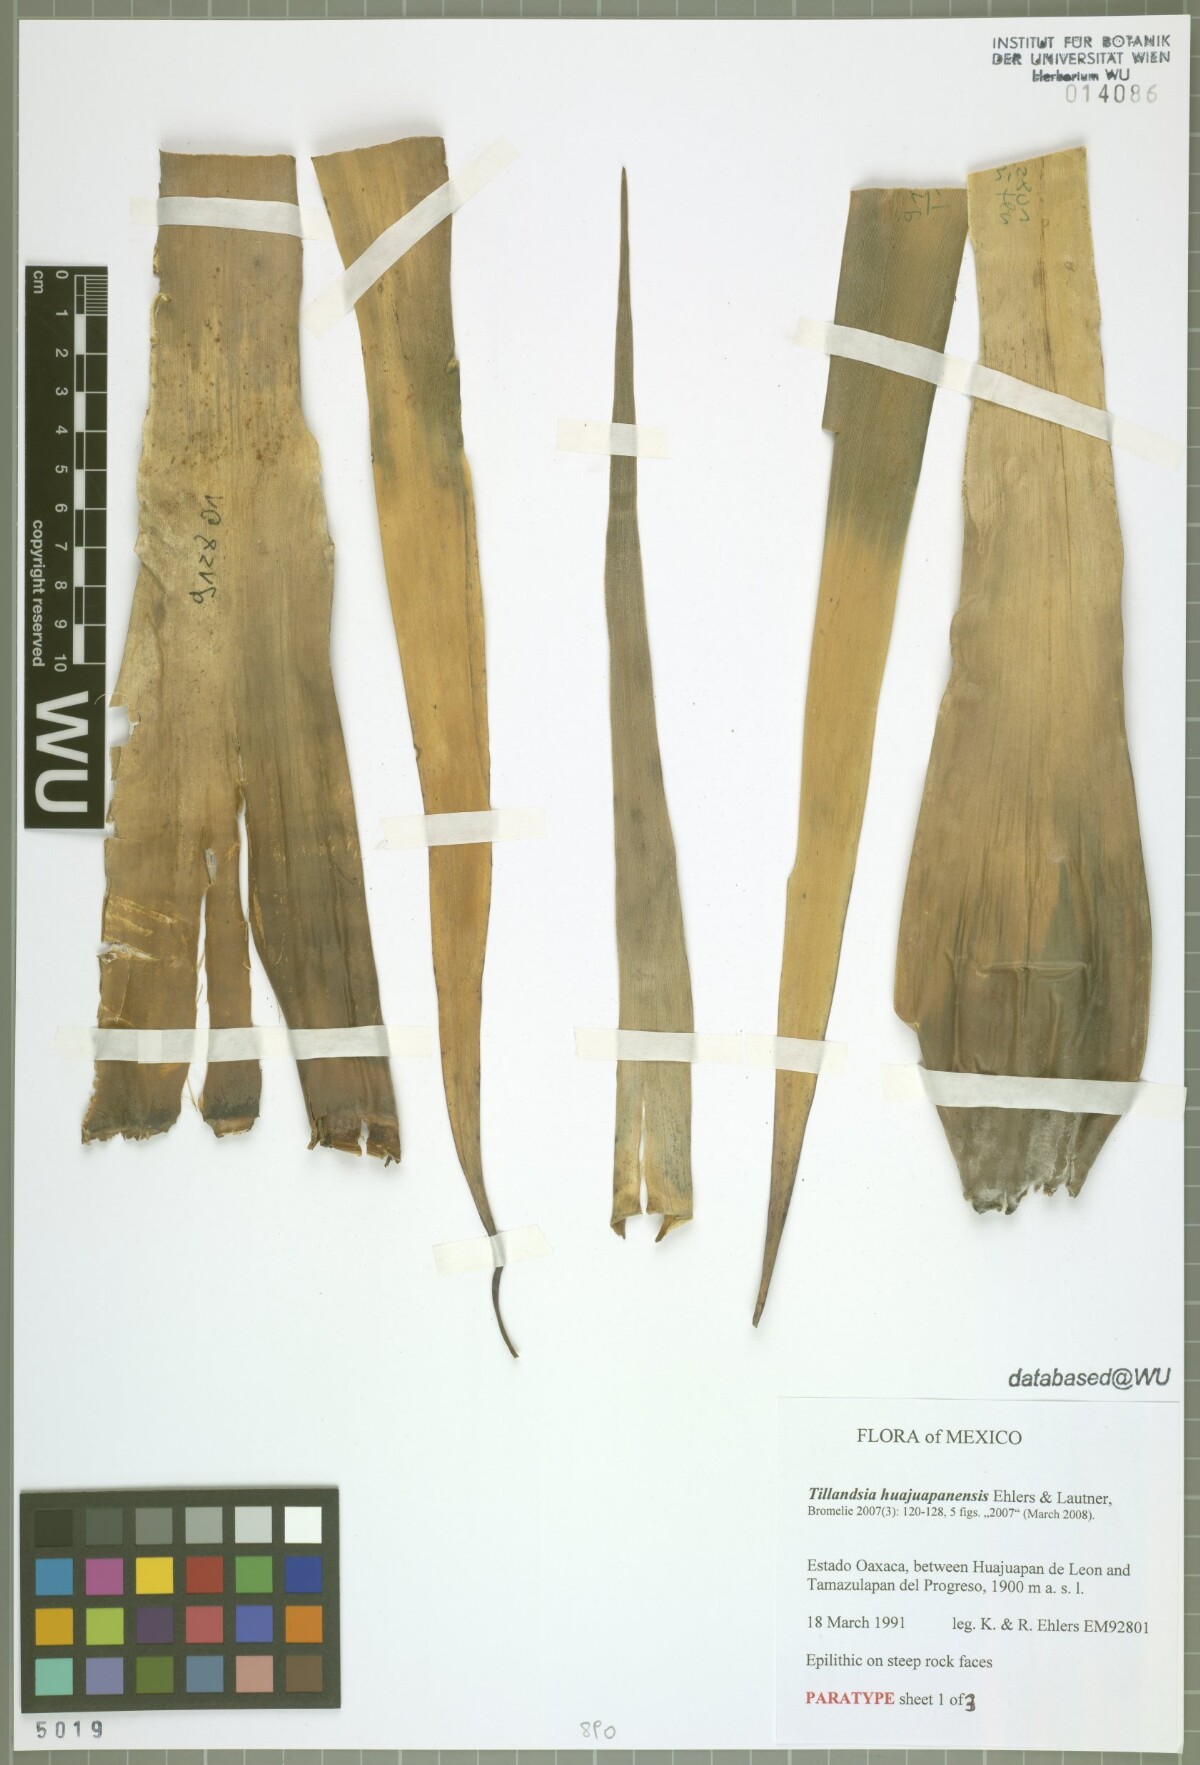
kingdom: Plantae
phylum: Tracheophyta
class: Liliopsida
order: Poales
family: Bromeliaceae
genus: Tillandsia
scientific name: Tillandsia huajuapanensis
